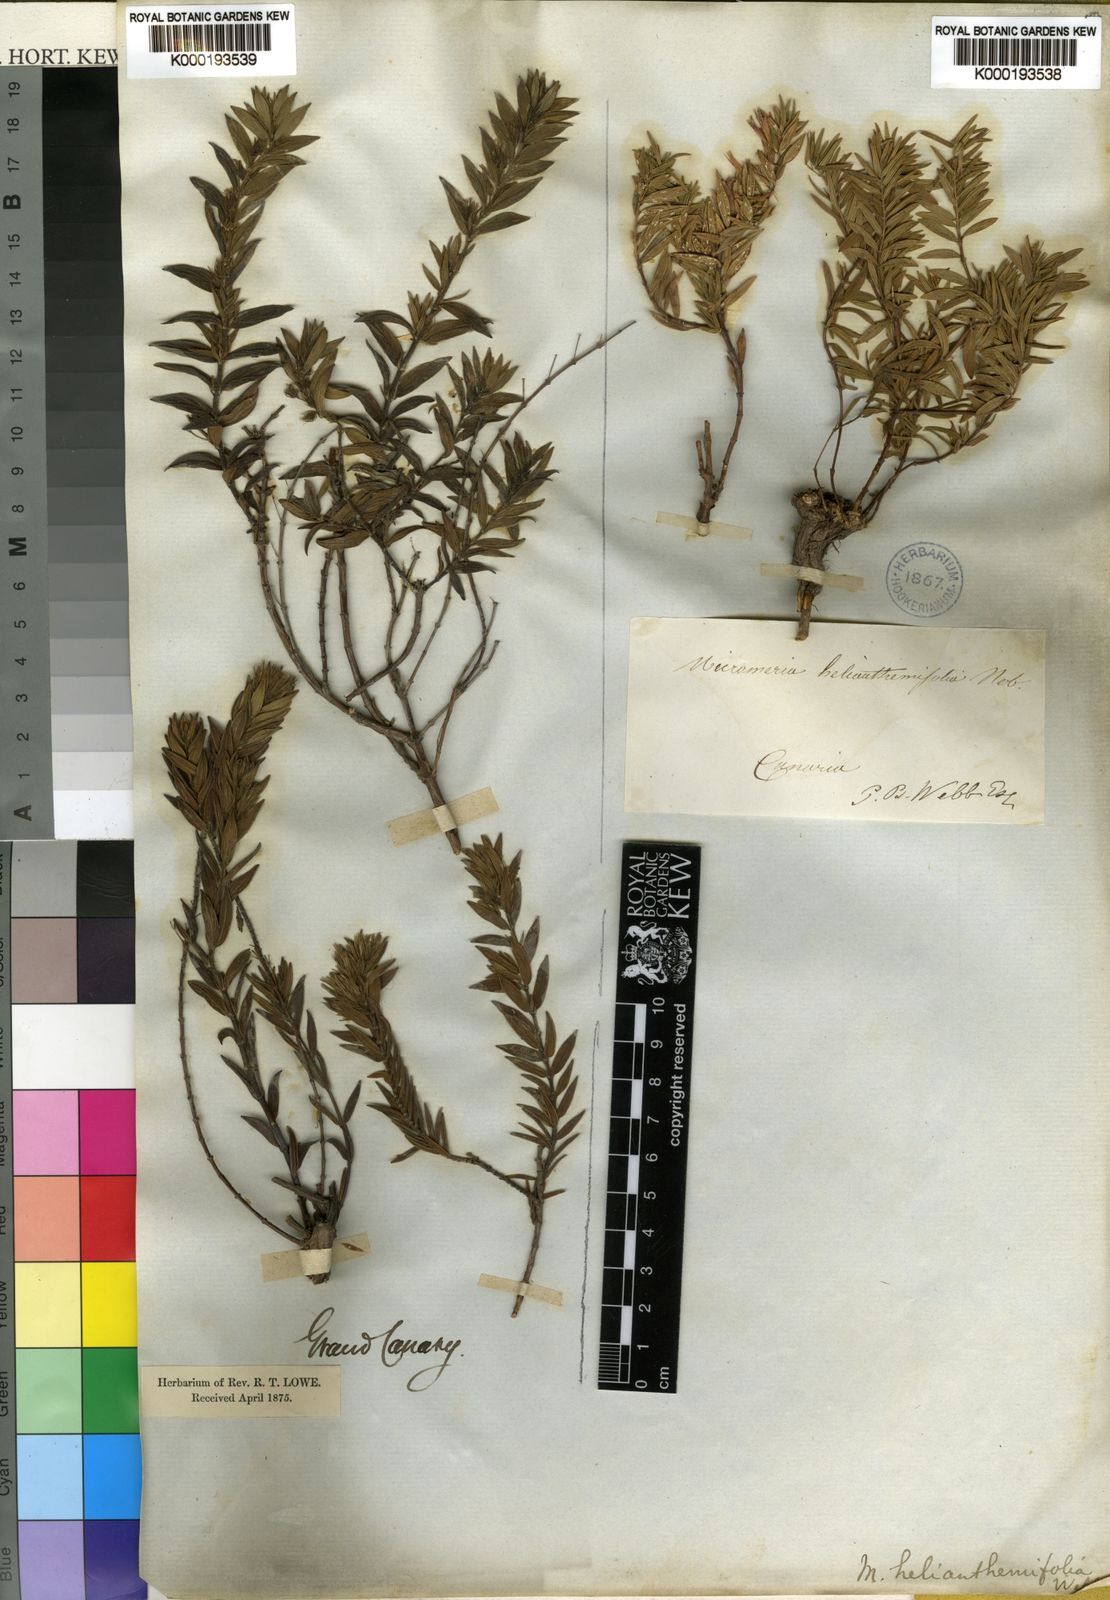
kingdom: Plantae
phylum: Tracheophyta
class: Magnoliopsida
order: Lamiales
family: Lamiaceae
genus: Micromeria
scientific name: Micromeria helianthemifolia
